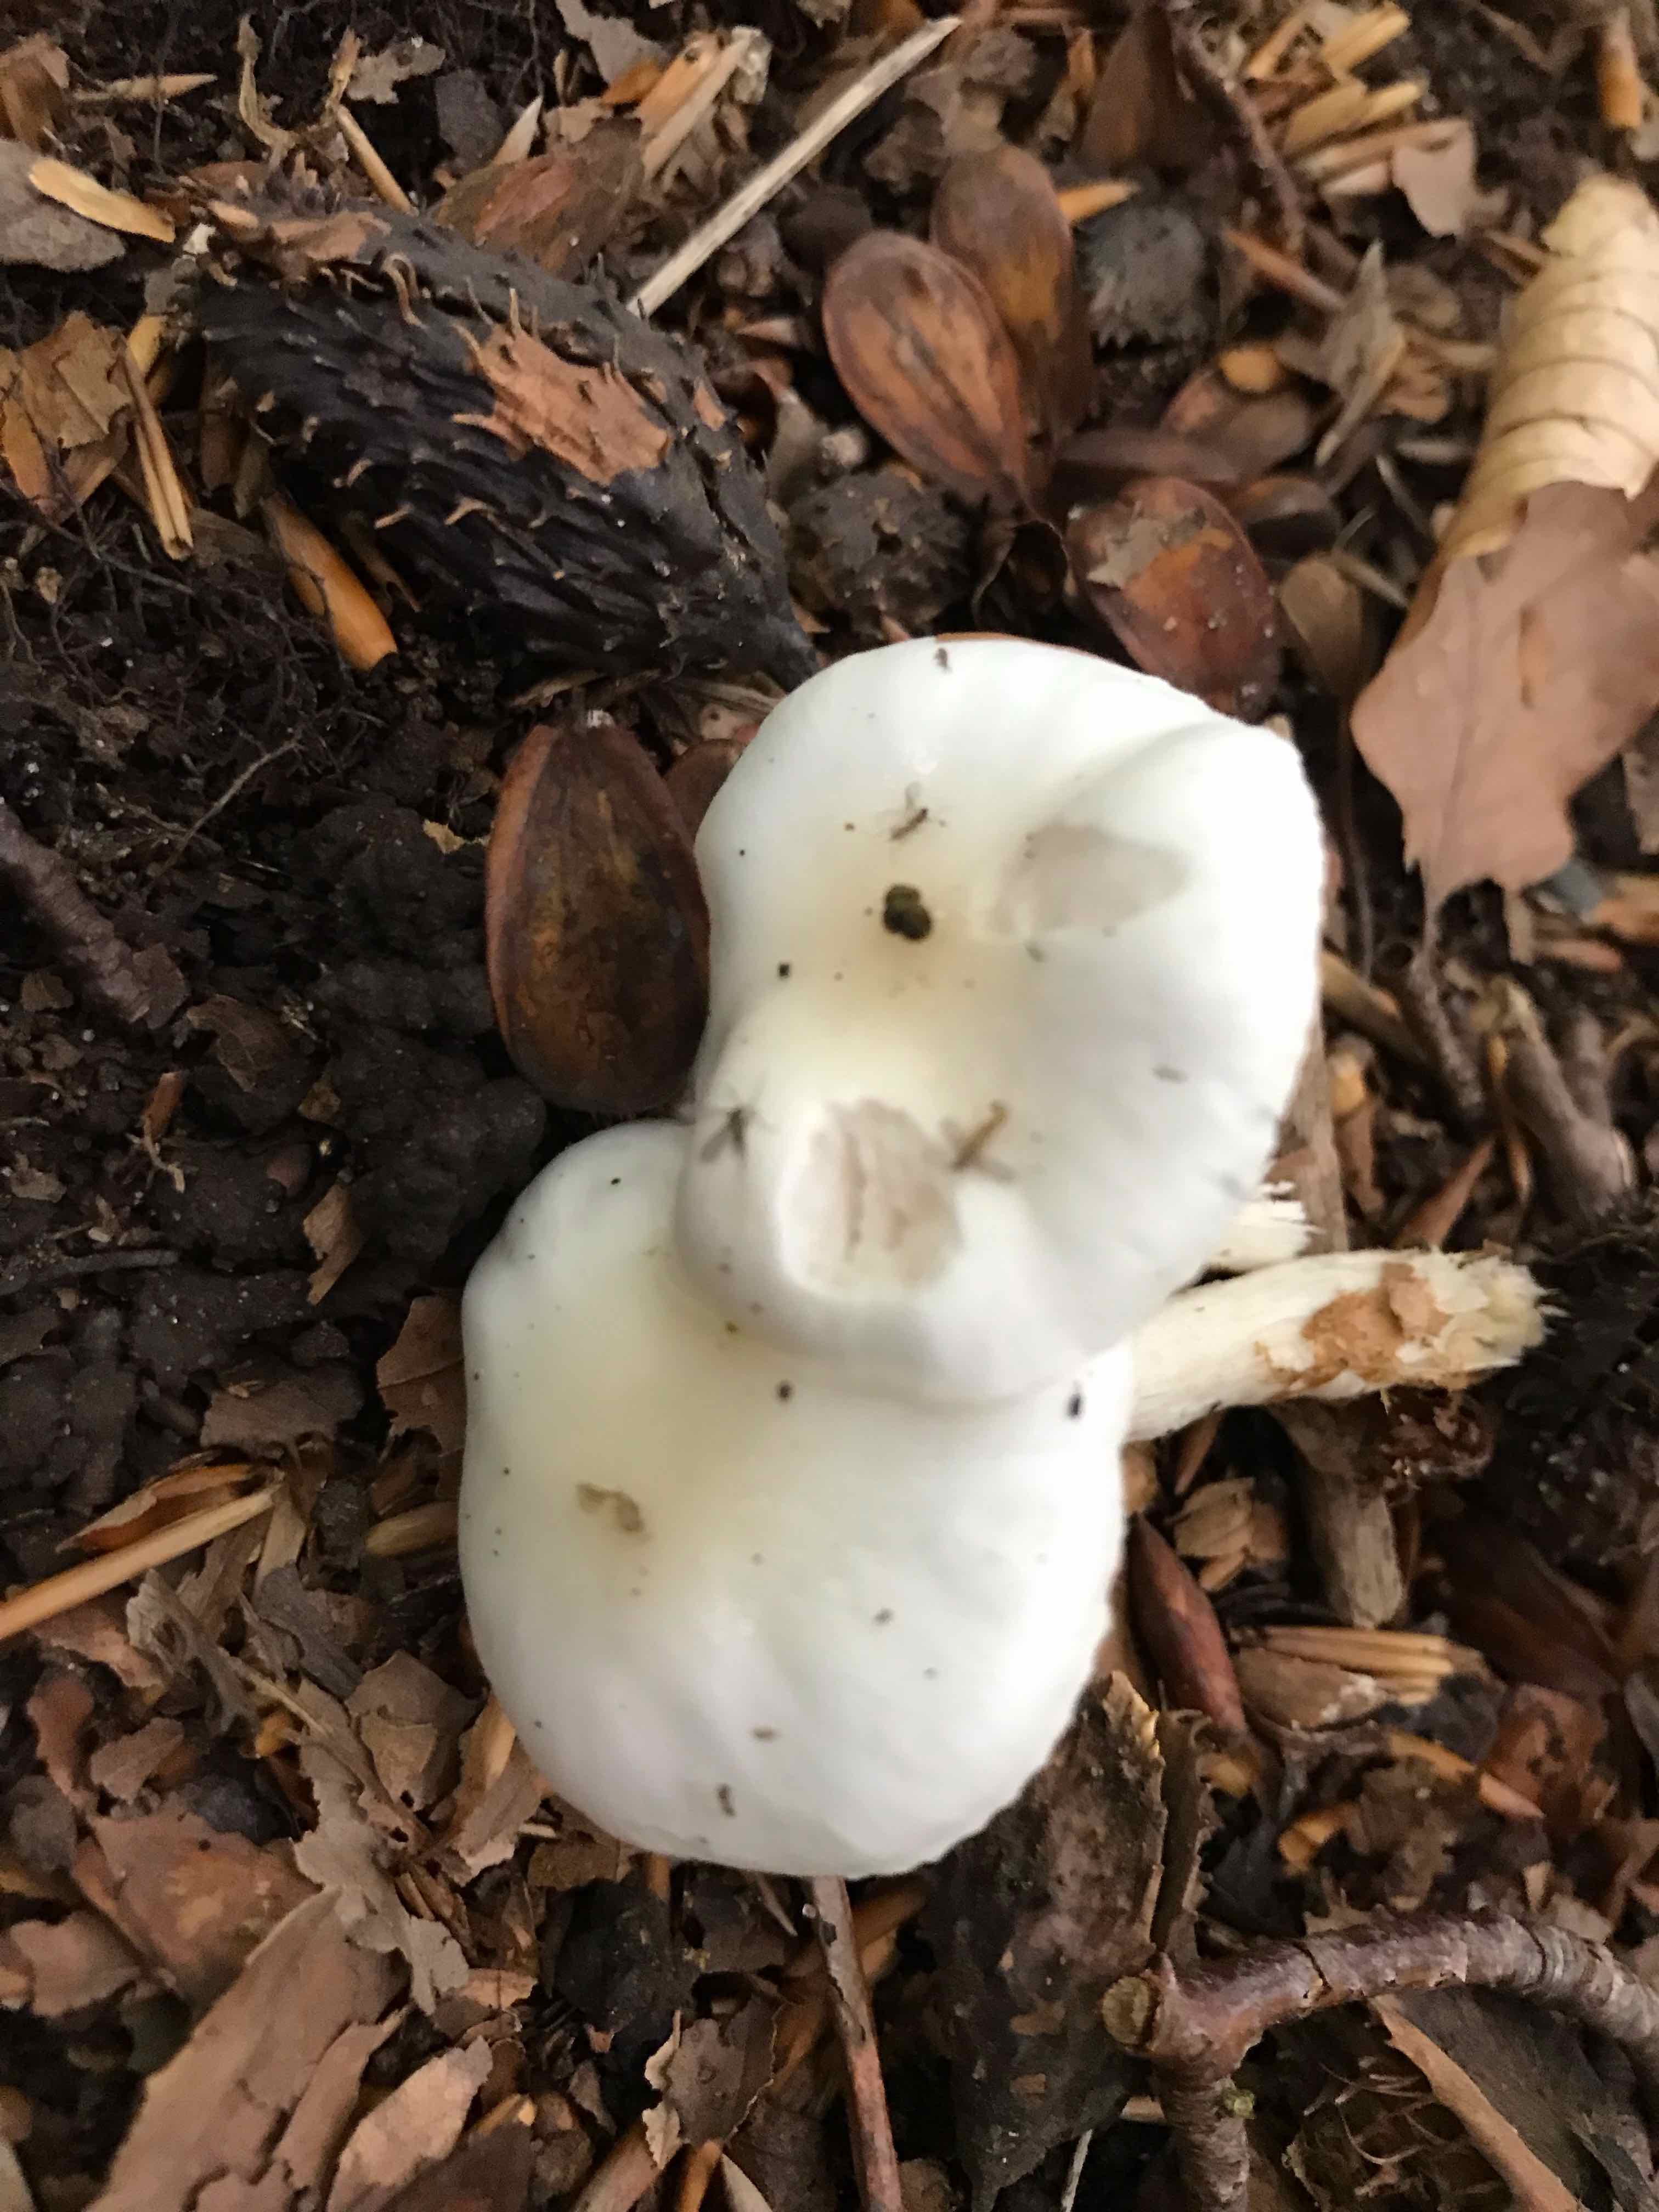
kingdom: Fungi
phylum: Basidiomycota
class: Agaricomycetes
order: Agaricales
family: Hygrophoraceae
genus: Hygrophorus
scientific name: Hygrophorus eburneus
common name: elfenbens-sneglehat
